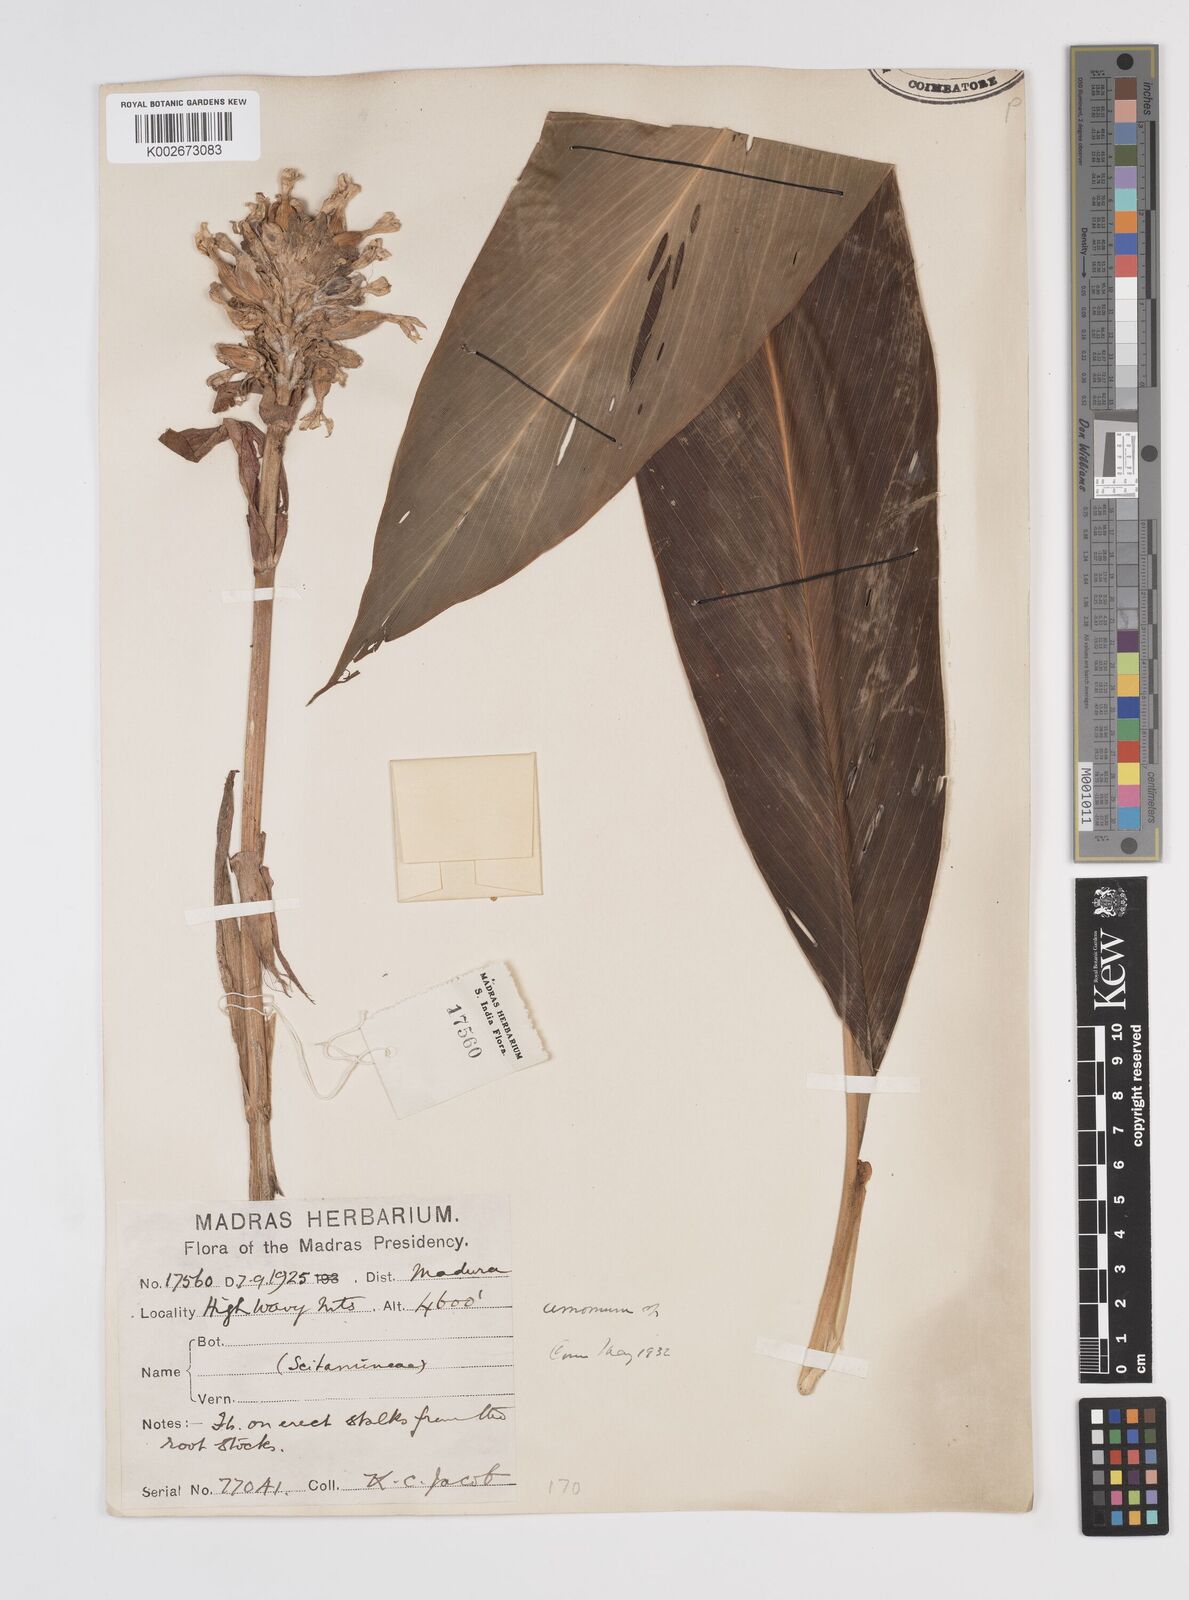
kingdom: Plantae
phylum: Tracheophyta
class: Liliopsida
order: Zingiberales
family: Zingiberaceae
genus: Amomum
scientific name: Amomum
